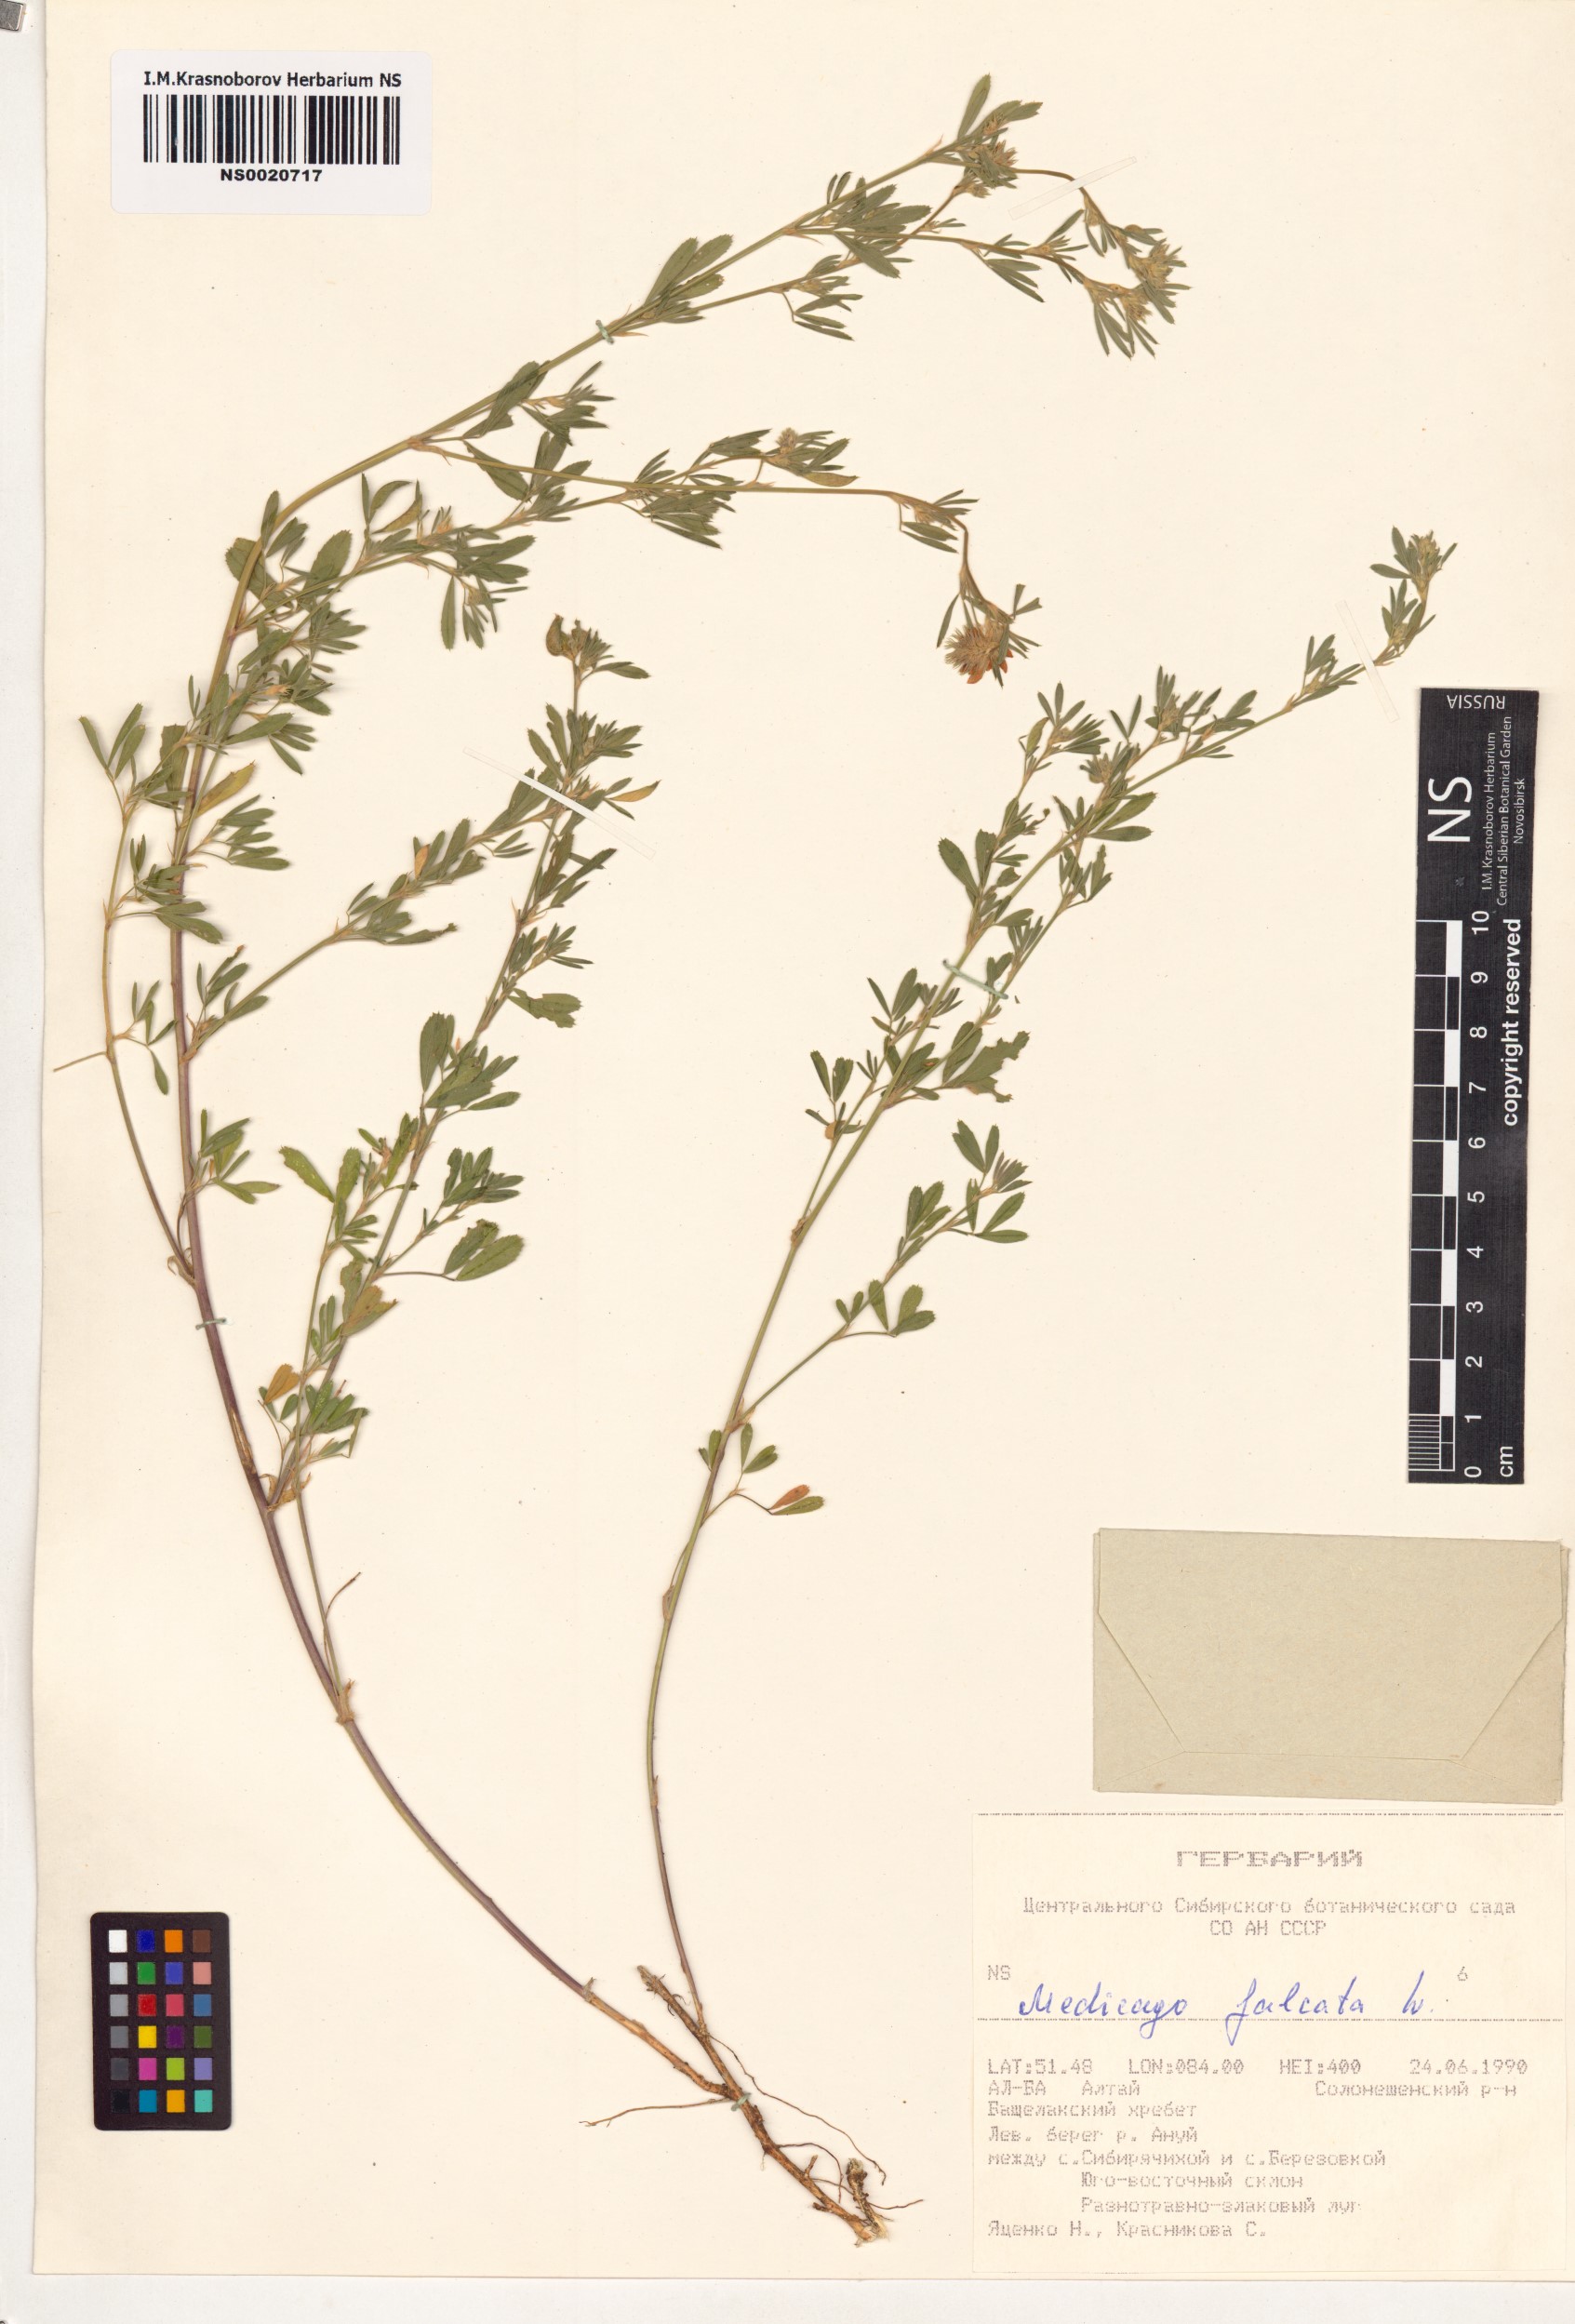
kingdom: Plantae
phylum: Tracheophyta
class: Magnoliopsida
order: Fabales
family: Fabaceae
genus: Medicago
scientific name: Medicago falcata
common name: Sickle medick
